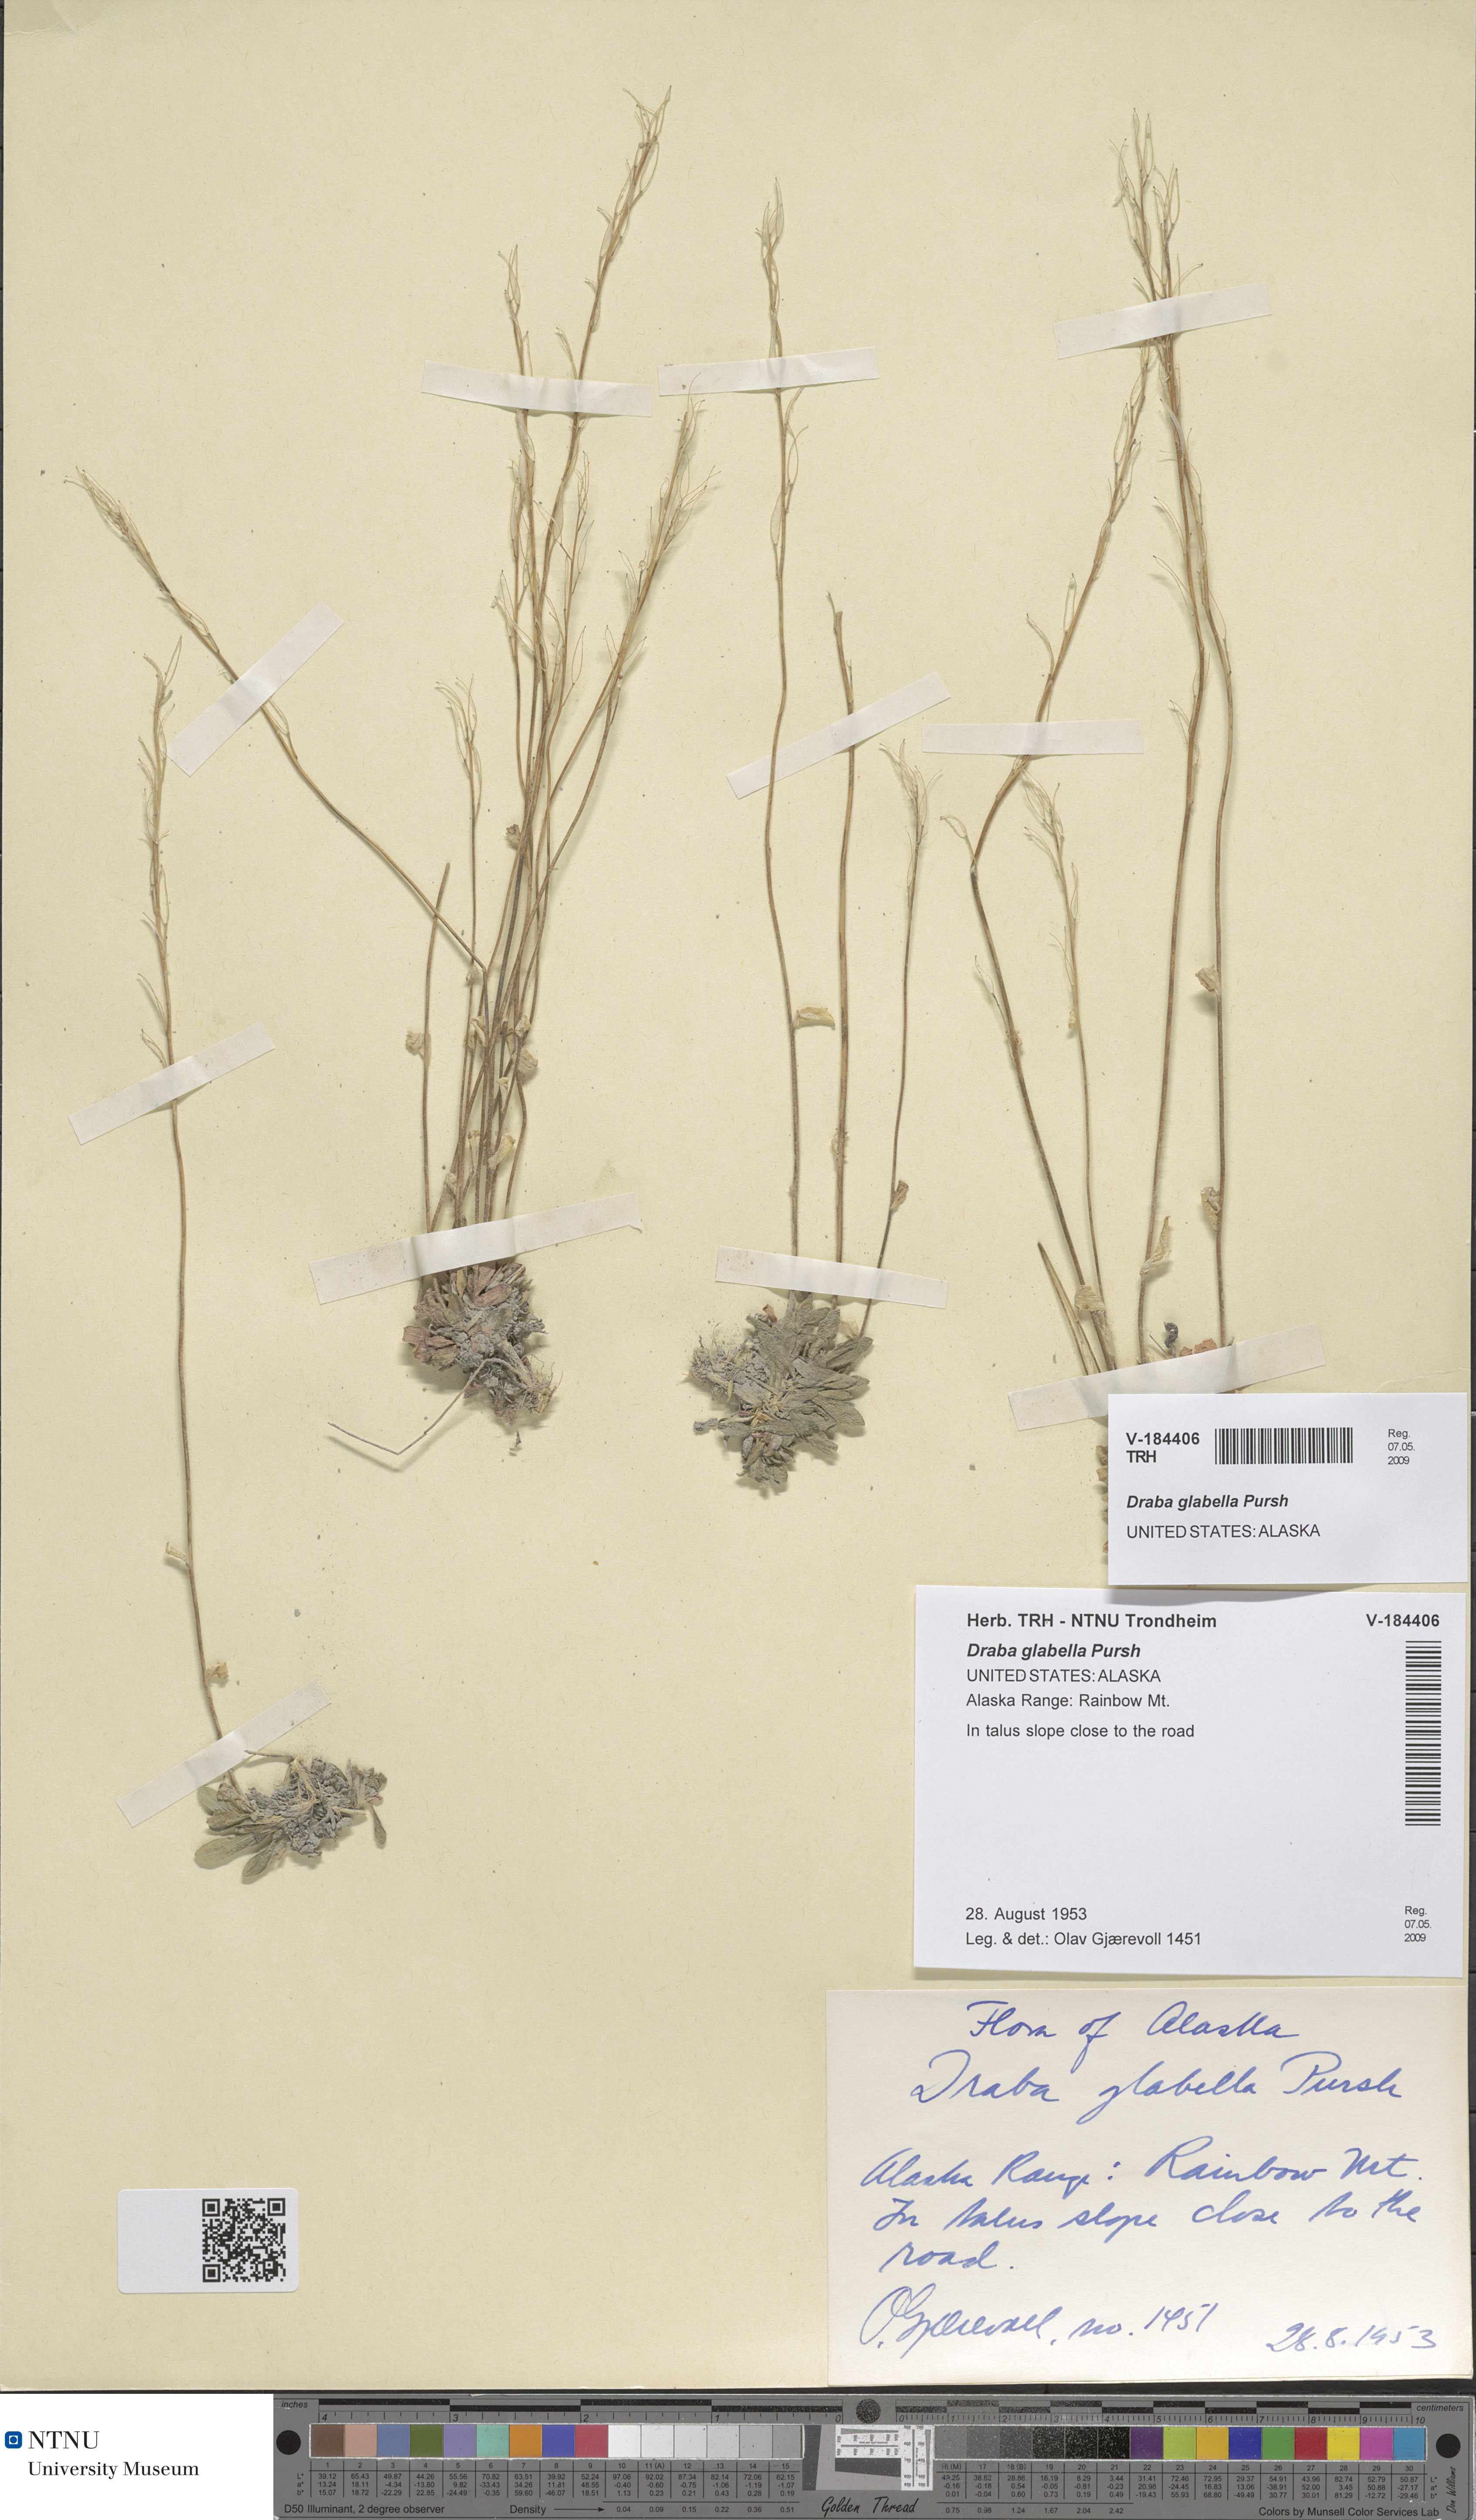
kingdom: Plantae
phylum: Tracheophyta
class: Magnoliopsida
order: Brassicales
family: Brassicaceae
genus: Draba
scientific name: Draba glabella
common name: Glaucous draba
